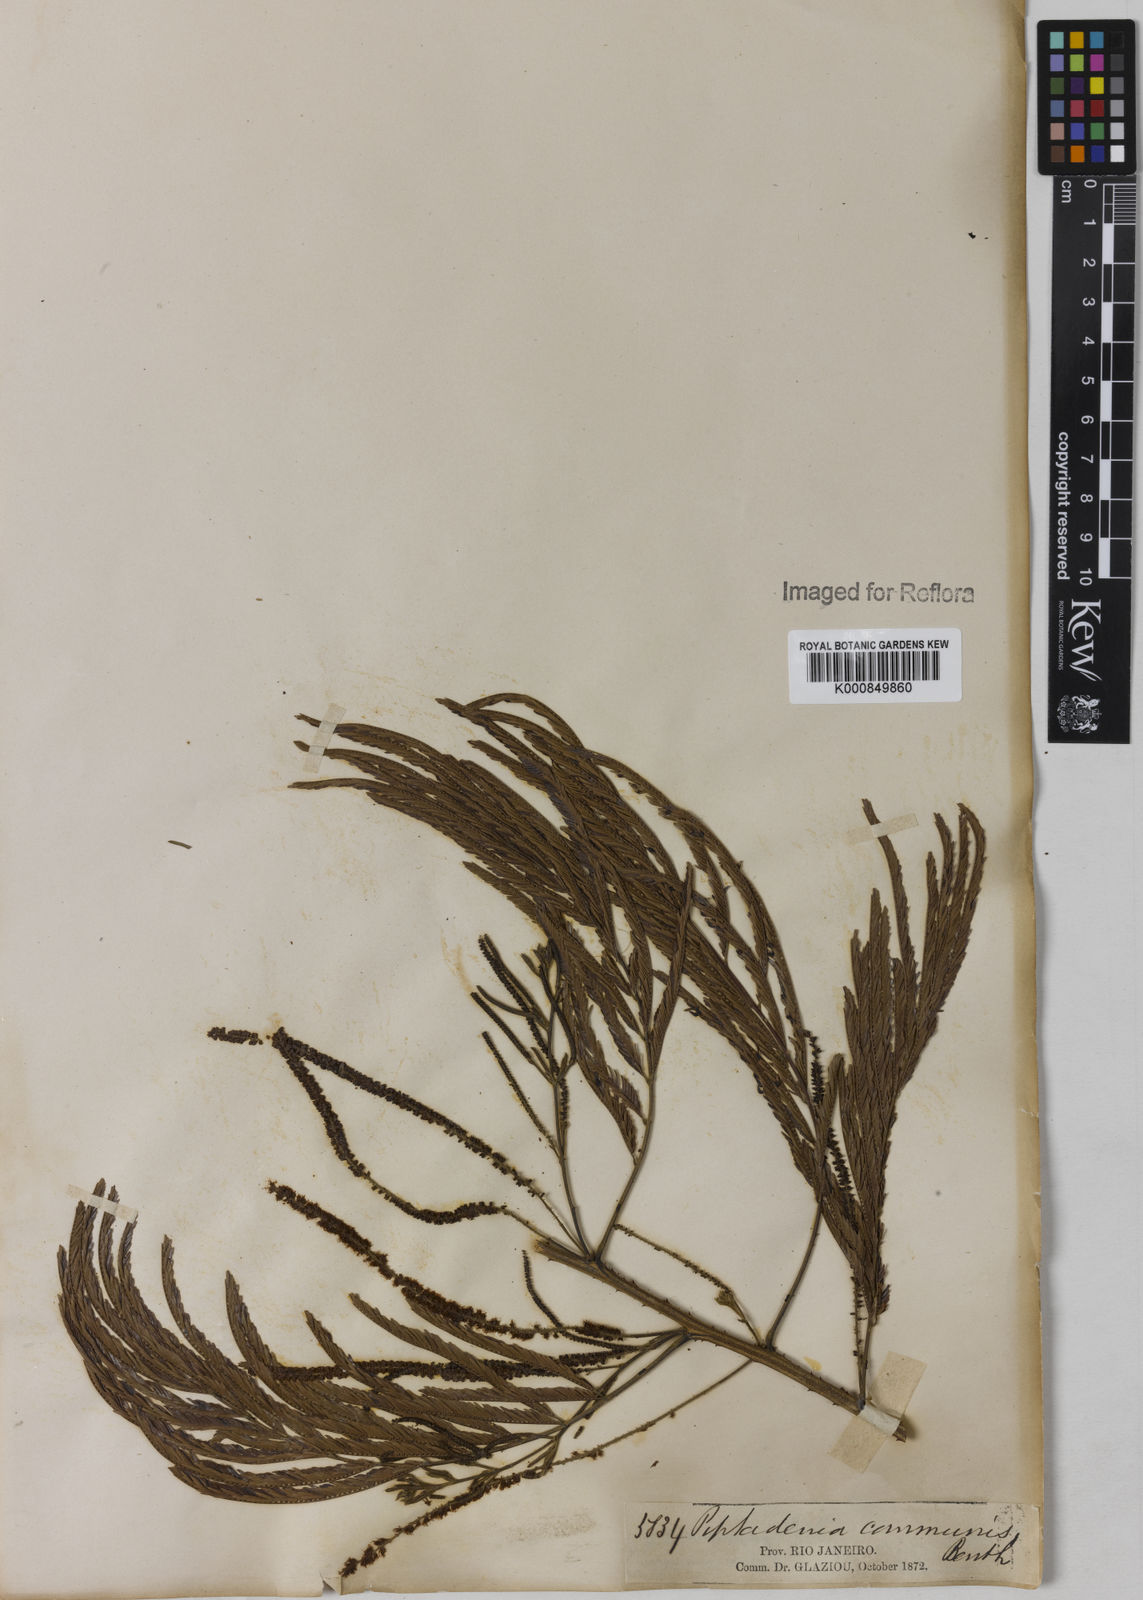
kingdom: Plantae
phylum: Tracheophyta
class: Magnoliopsida
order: Fabales
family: Fabaceae
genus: Piptadenia
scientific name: Piptadenia gonoacantha
